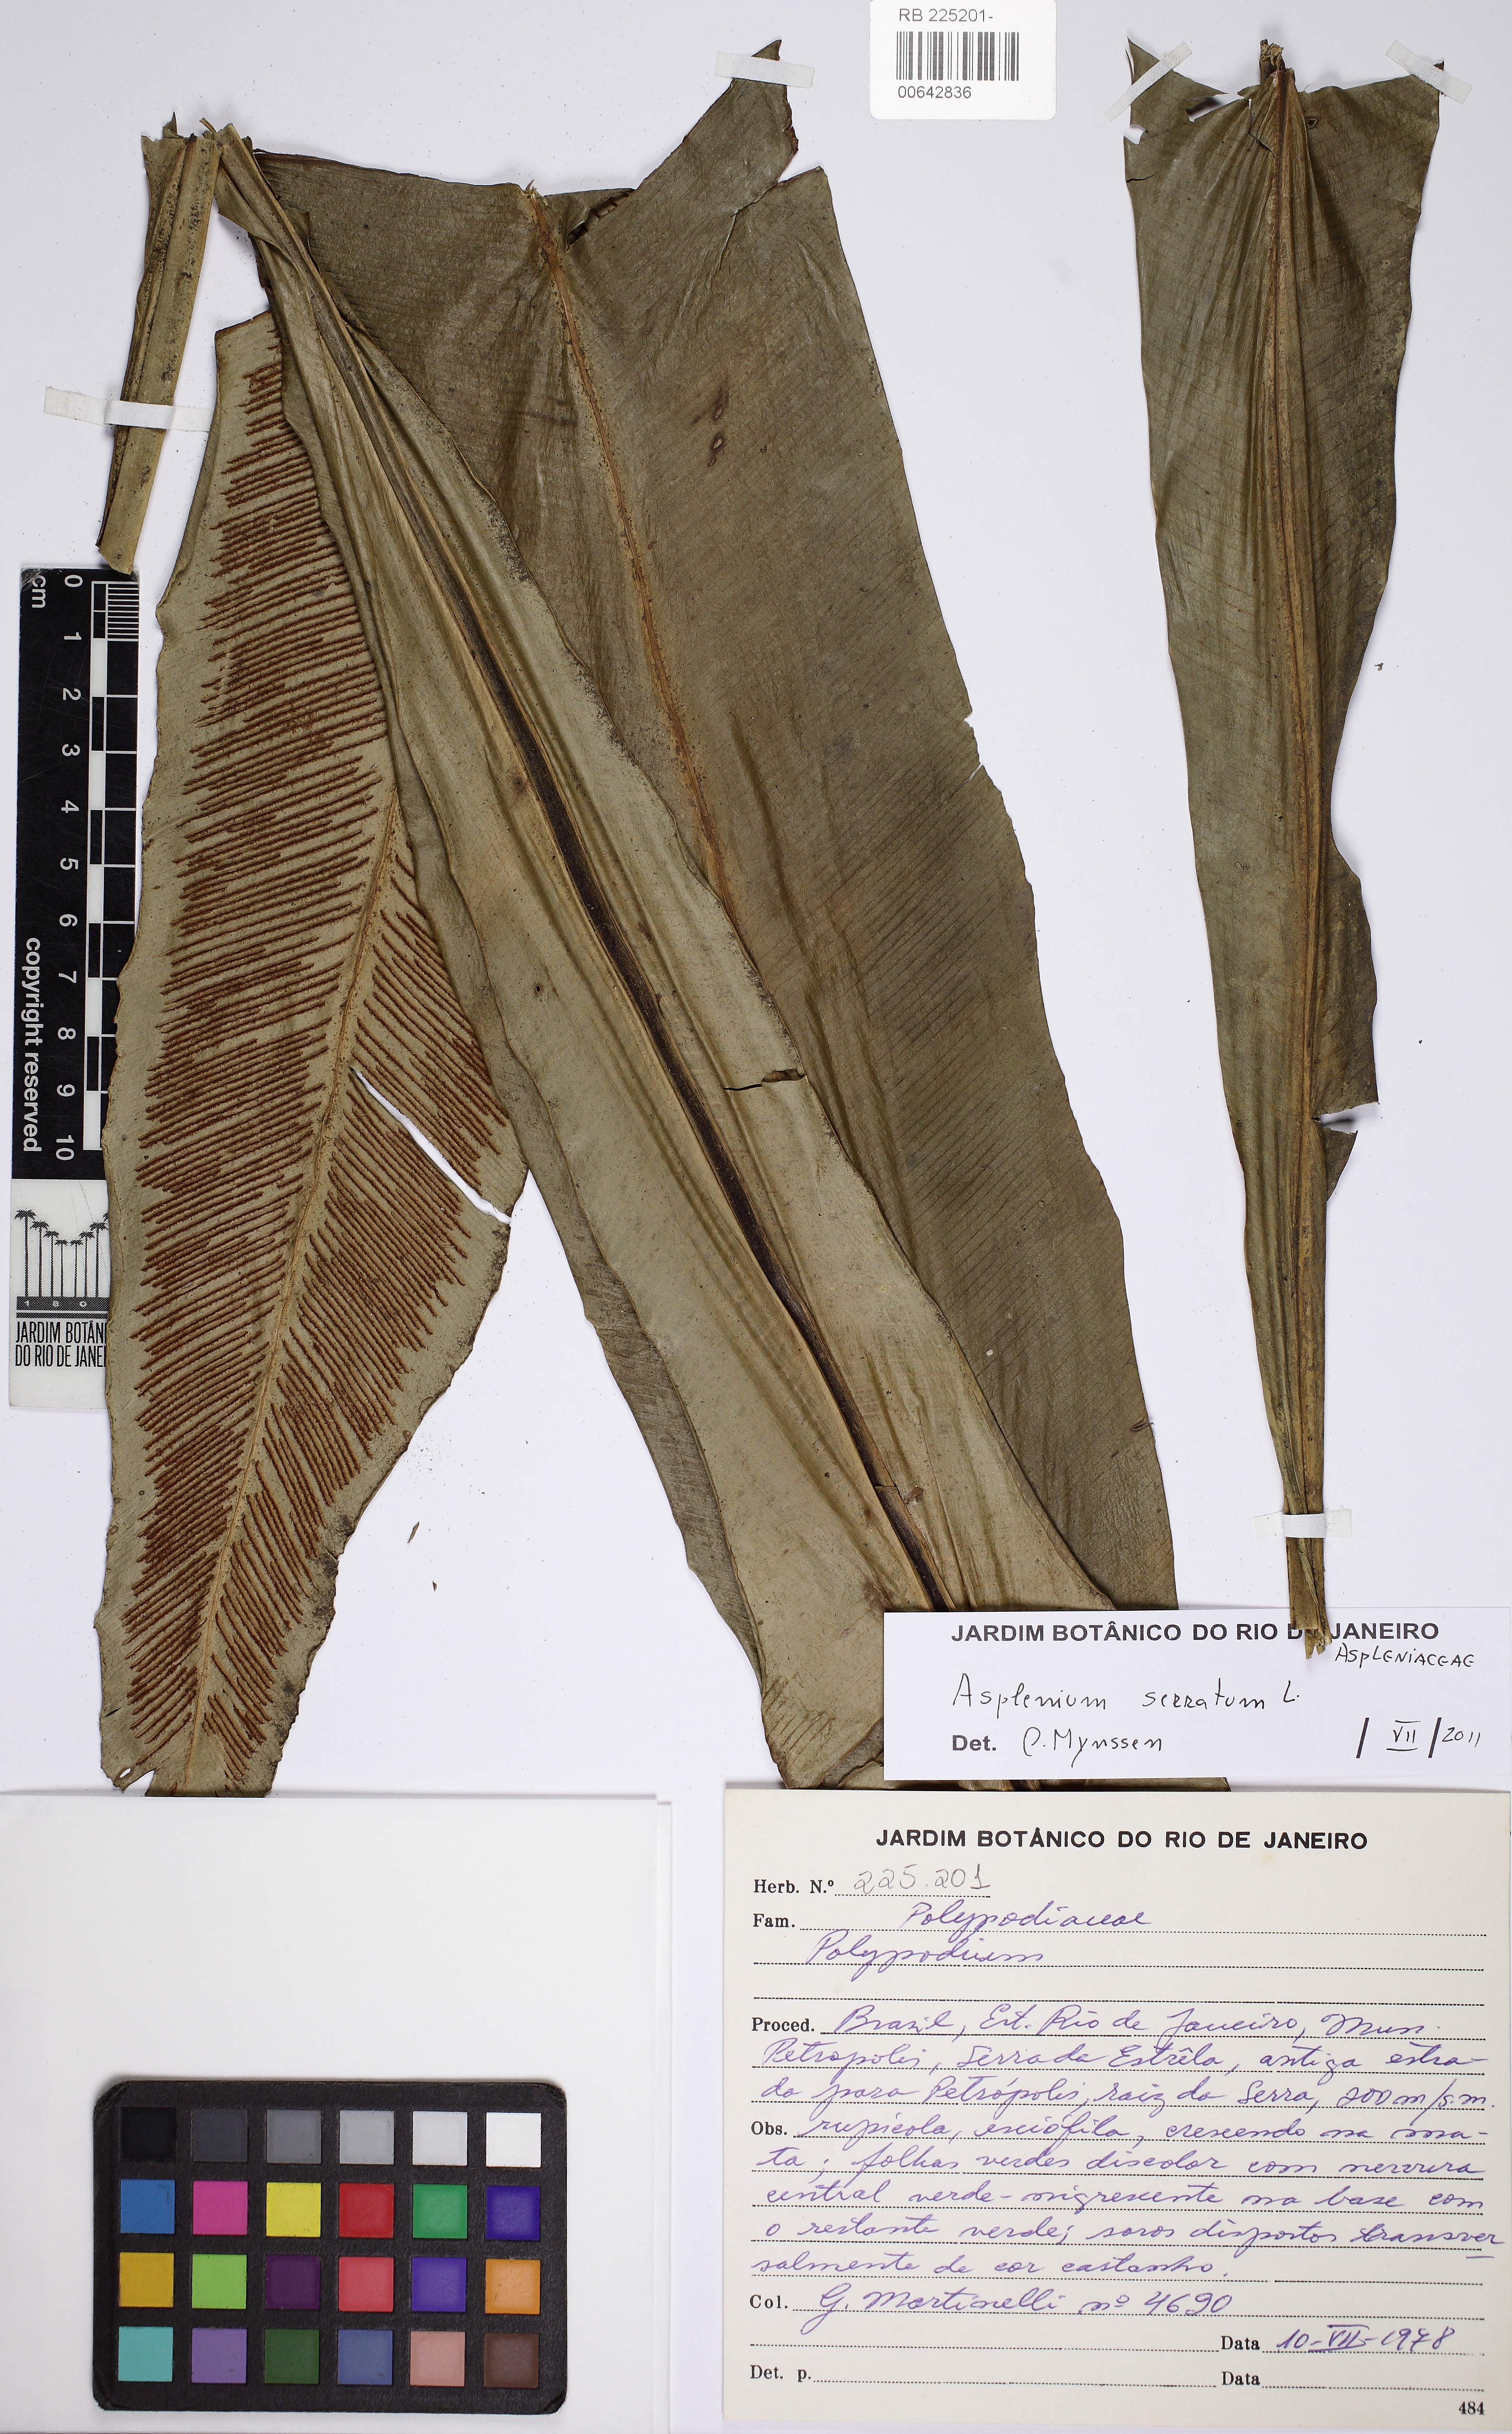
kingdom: Plantae
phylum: Tracheophyta
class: Polypodiopsida
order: Polypodiales
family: Aspleniaceae
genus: Asplenium
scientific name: Asplenium coronatum
